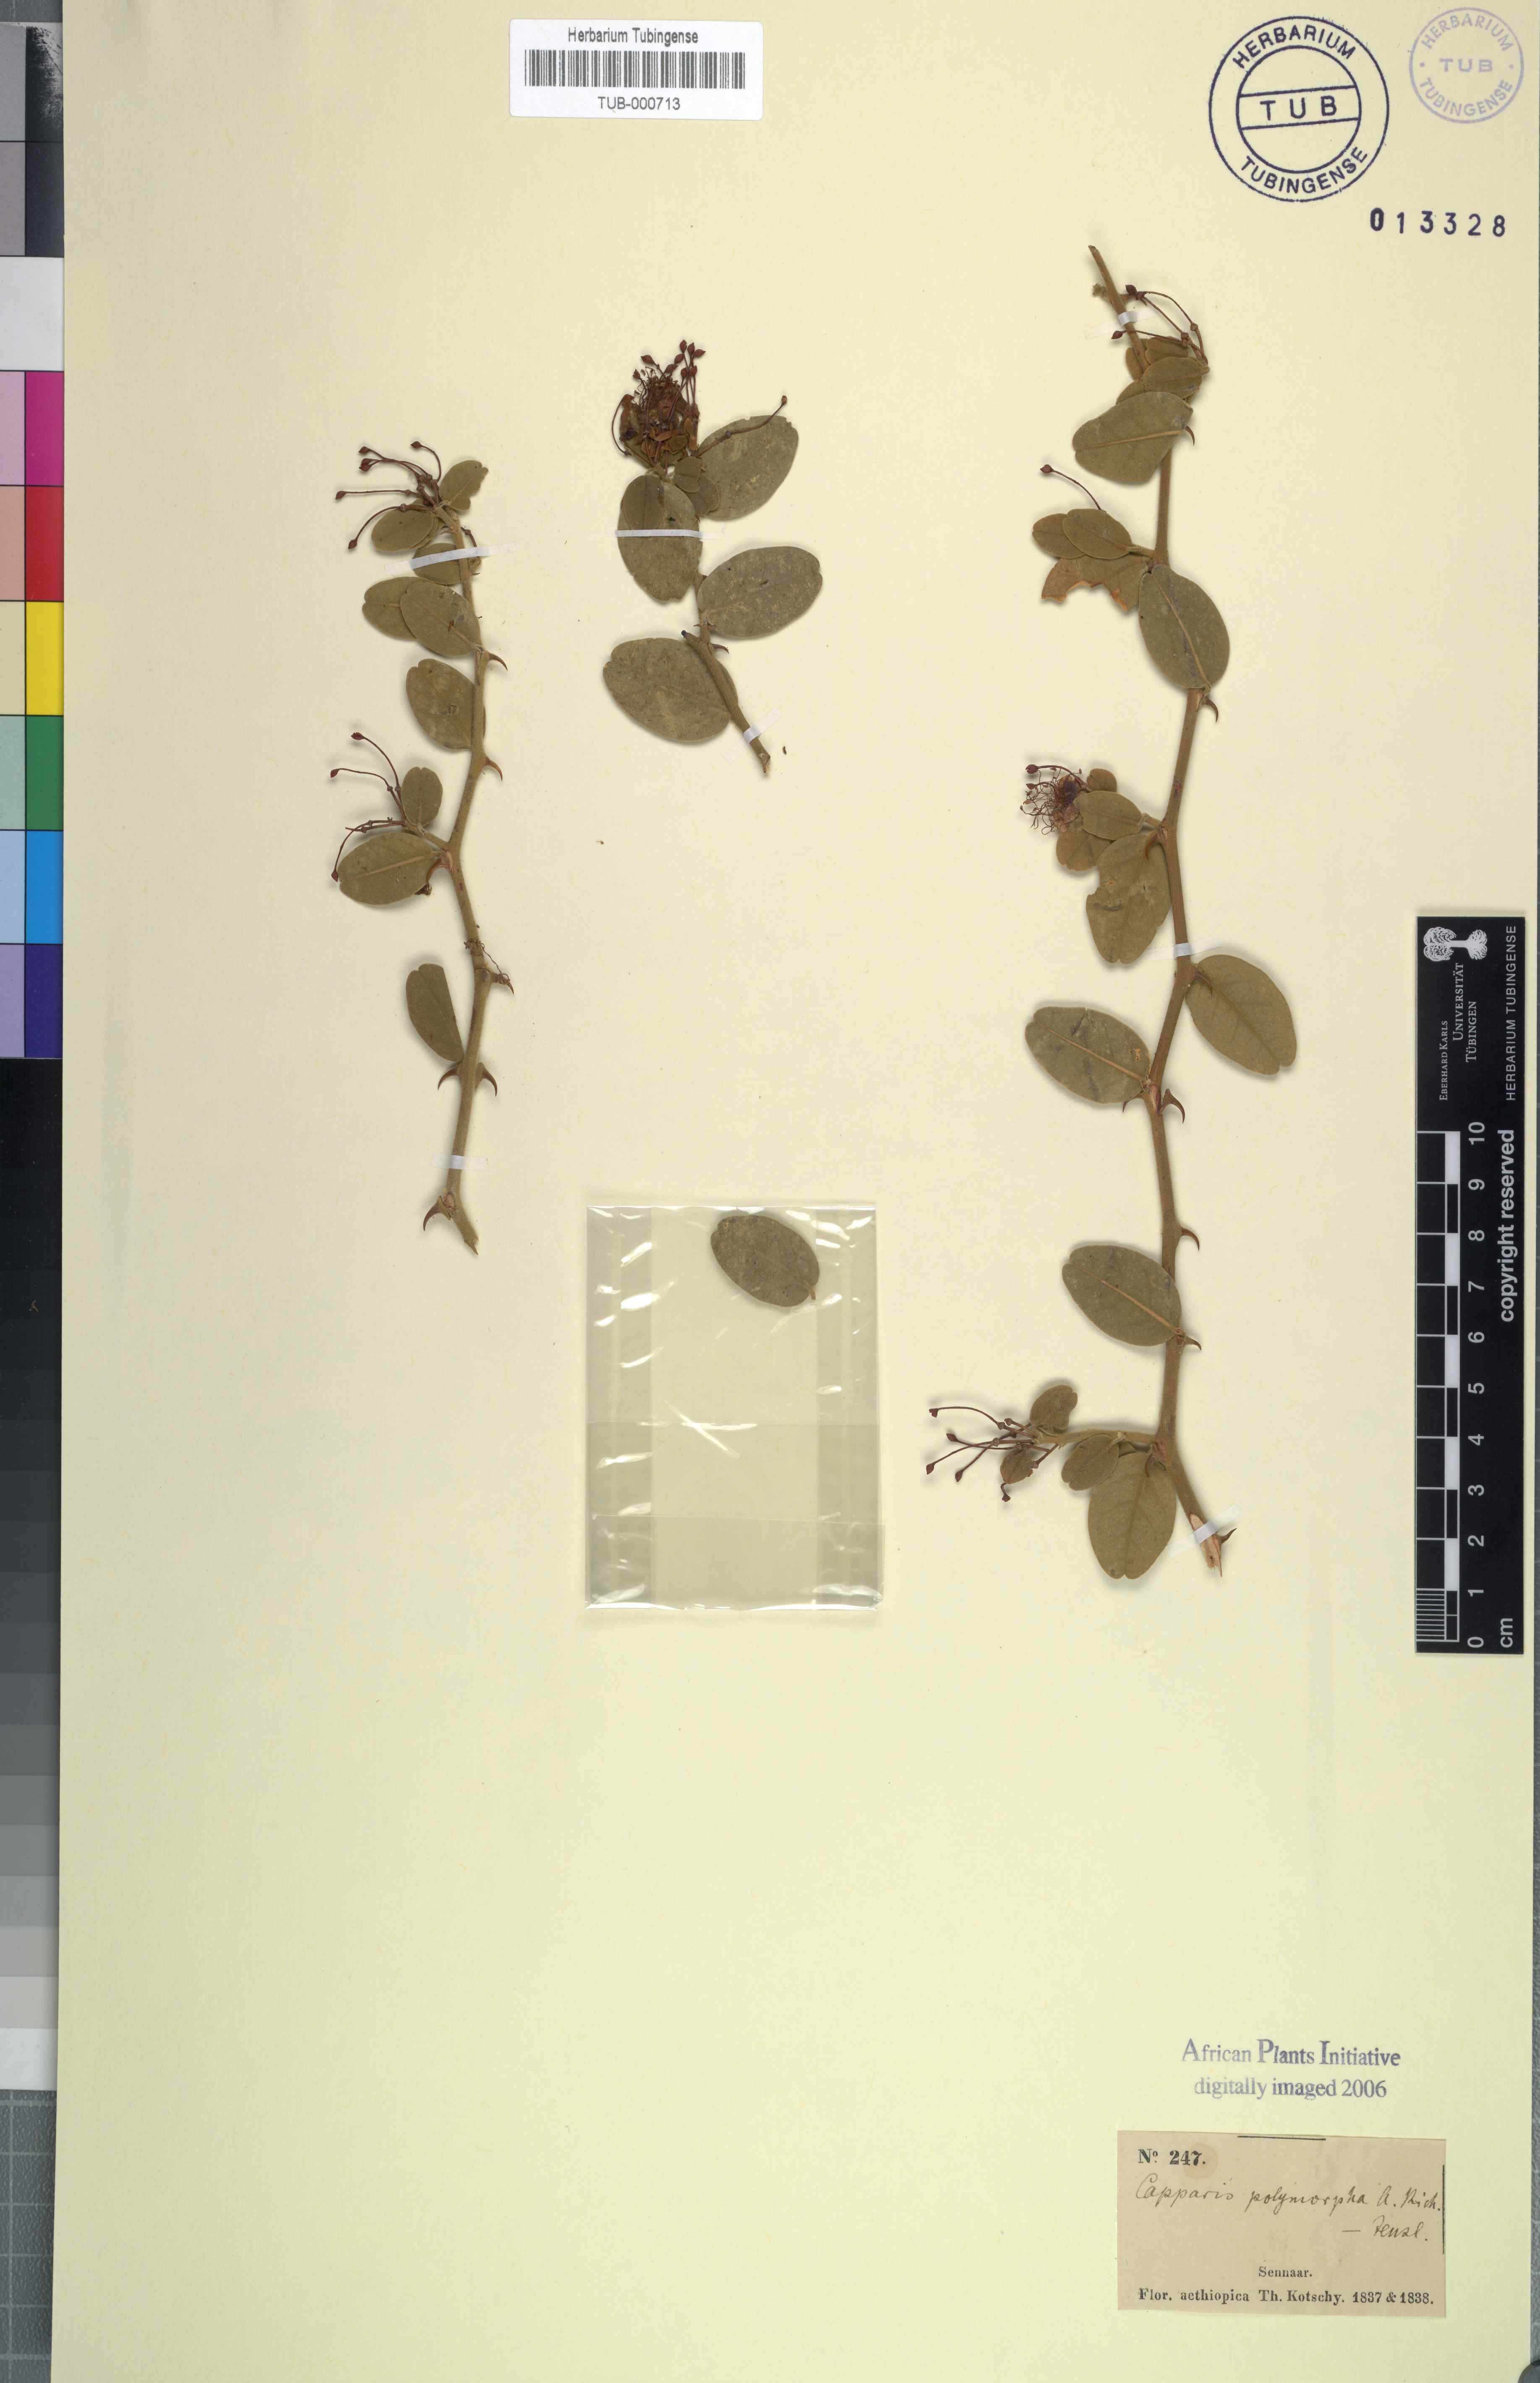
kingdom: Plantae
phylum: Tracheophyta
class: Magnoliopsida
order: Brassicales
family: Capparaceae
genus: Capparis
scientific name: Capparis tomentosa
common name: African caper
